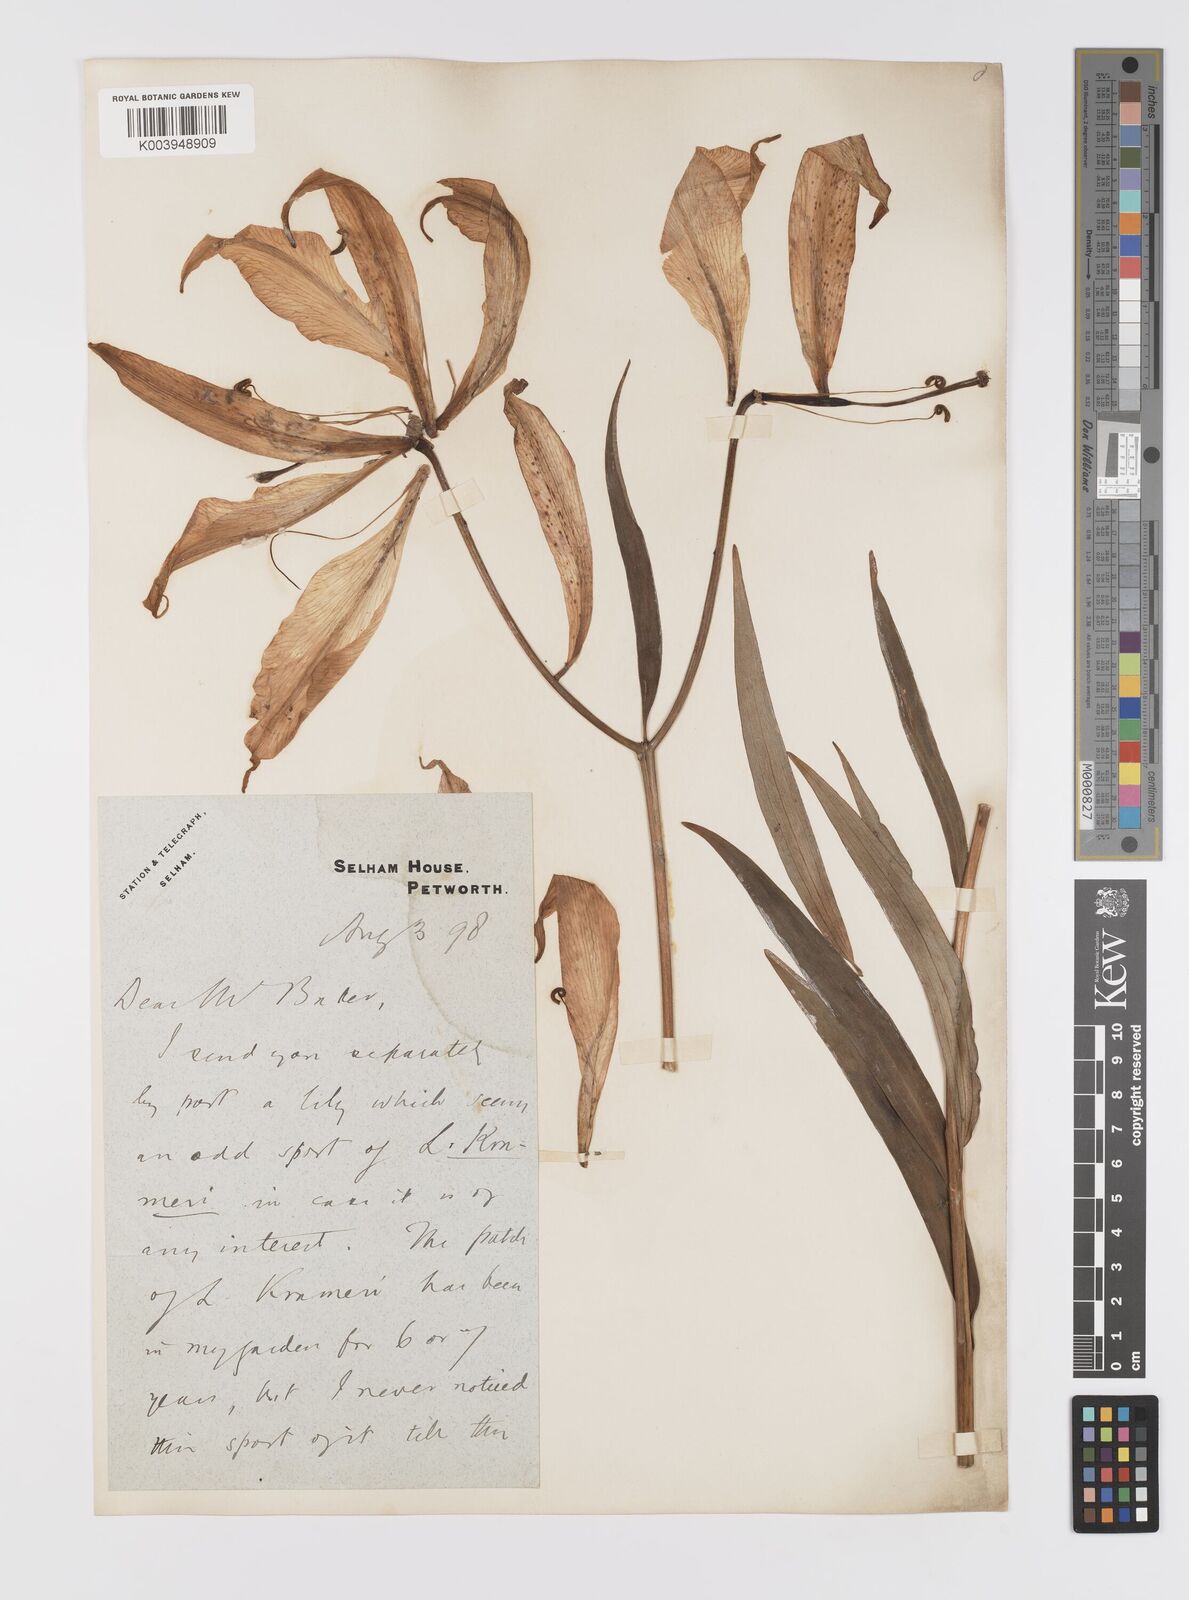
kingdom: Plantae
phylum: Tracheophyta
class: Liliopsida
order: Liliales
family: Liliaceae
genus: Lilium
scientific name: Lilium japonicum
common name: Japanese lily
